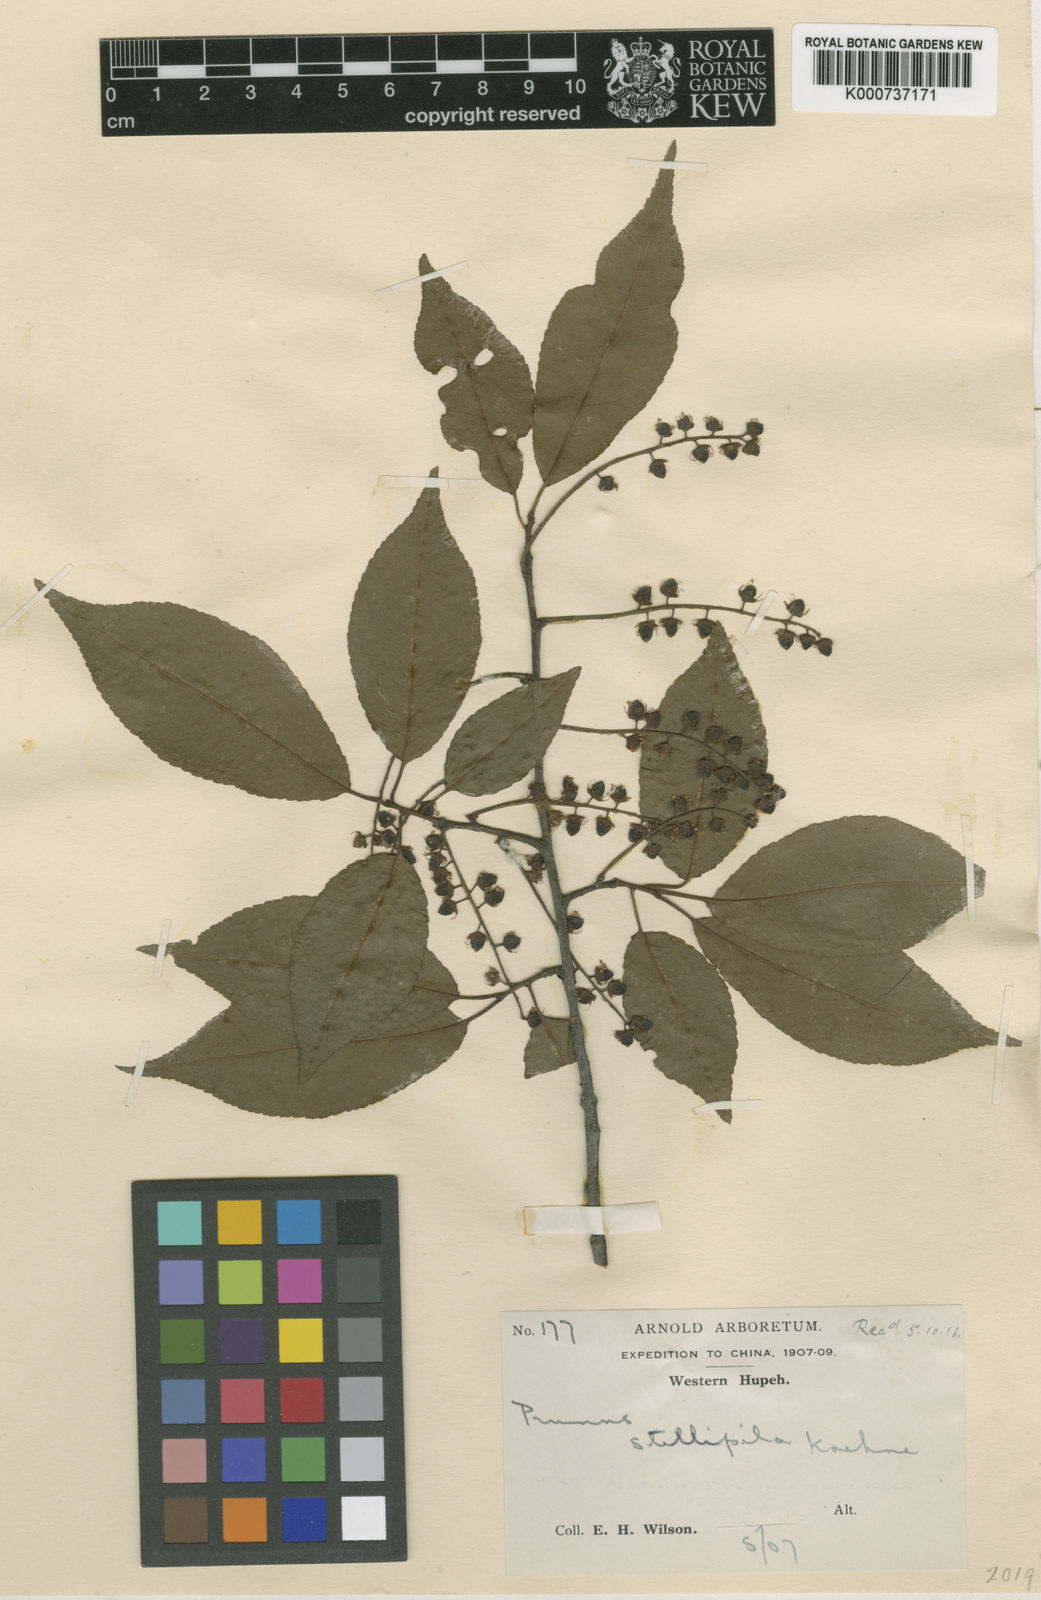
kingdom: Plantae
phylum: Tracheophyta
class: Magnoliopsida
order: Rosales
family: Rosaceae
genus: Prunus
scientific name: Prunus stellipila
